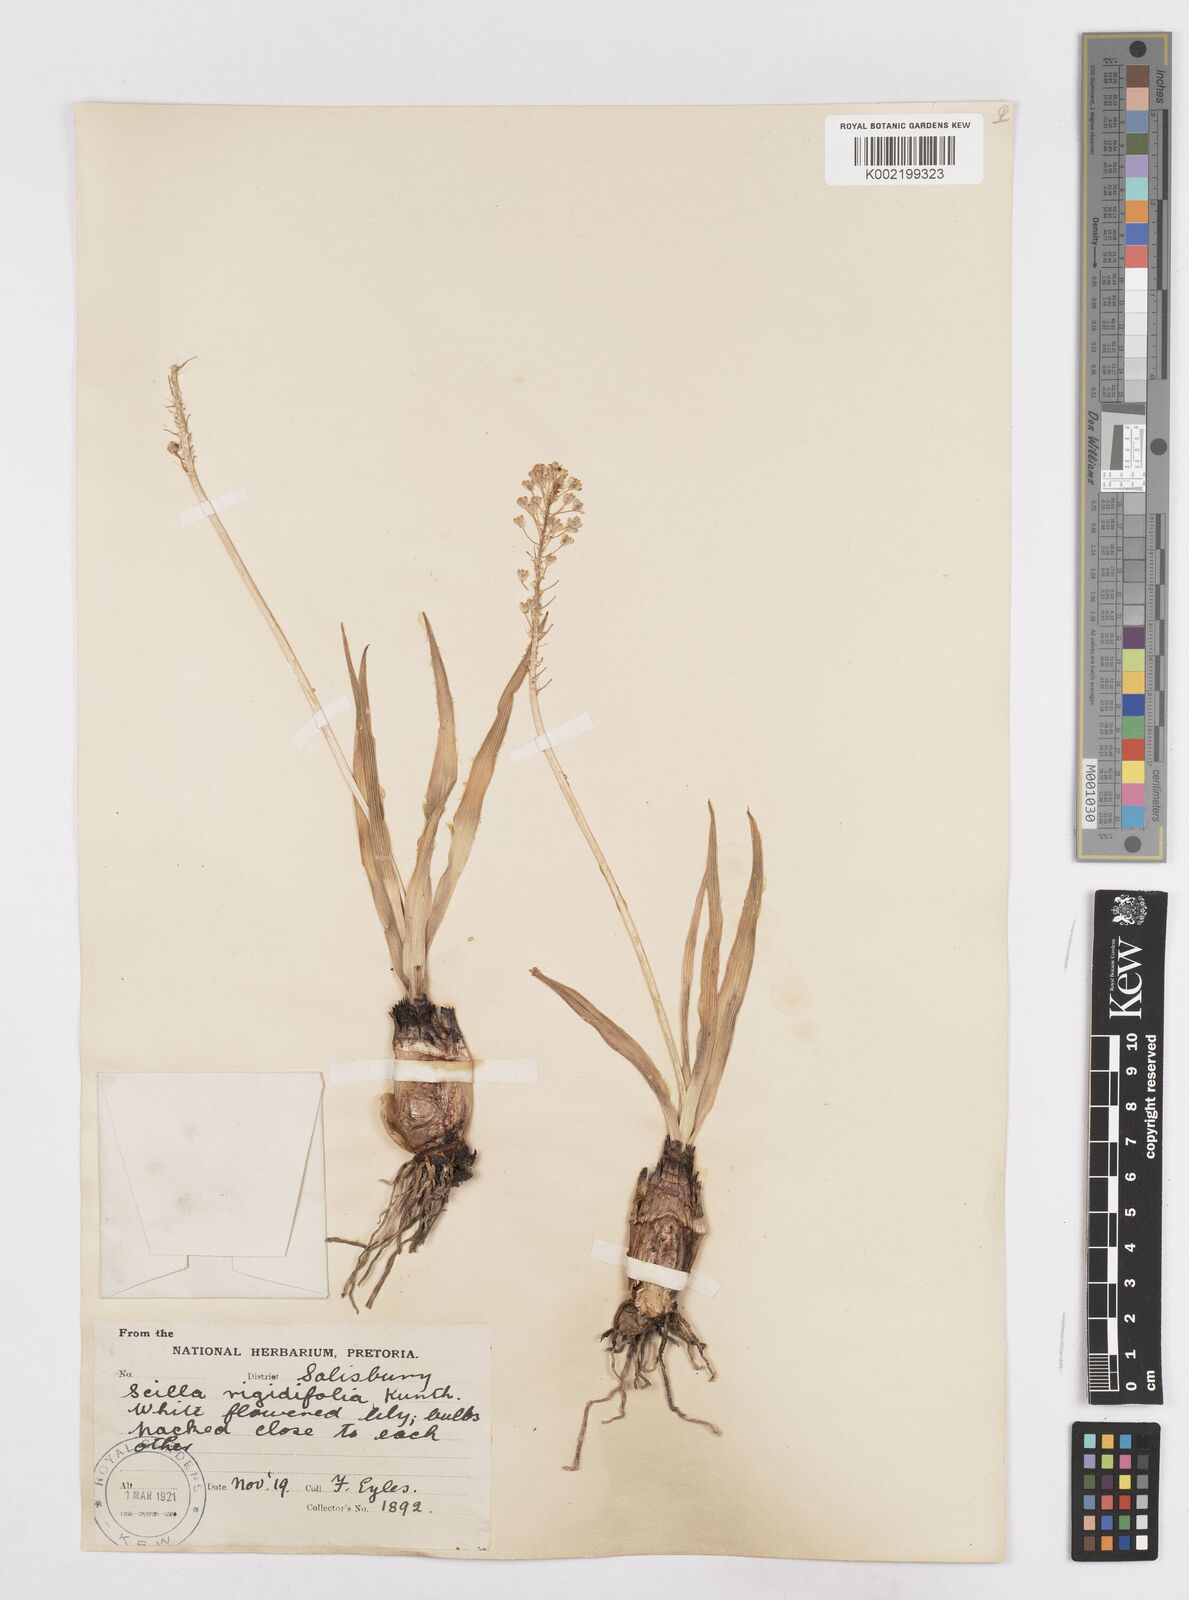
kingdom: Plantae
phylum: Tracheophyta
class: Liliopsida
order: Asparagales
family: Asparagaceae
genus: Schizocarphus
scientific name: Schizocarphus nervosus
